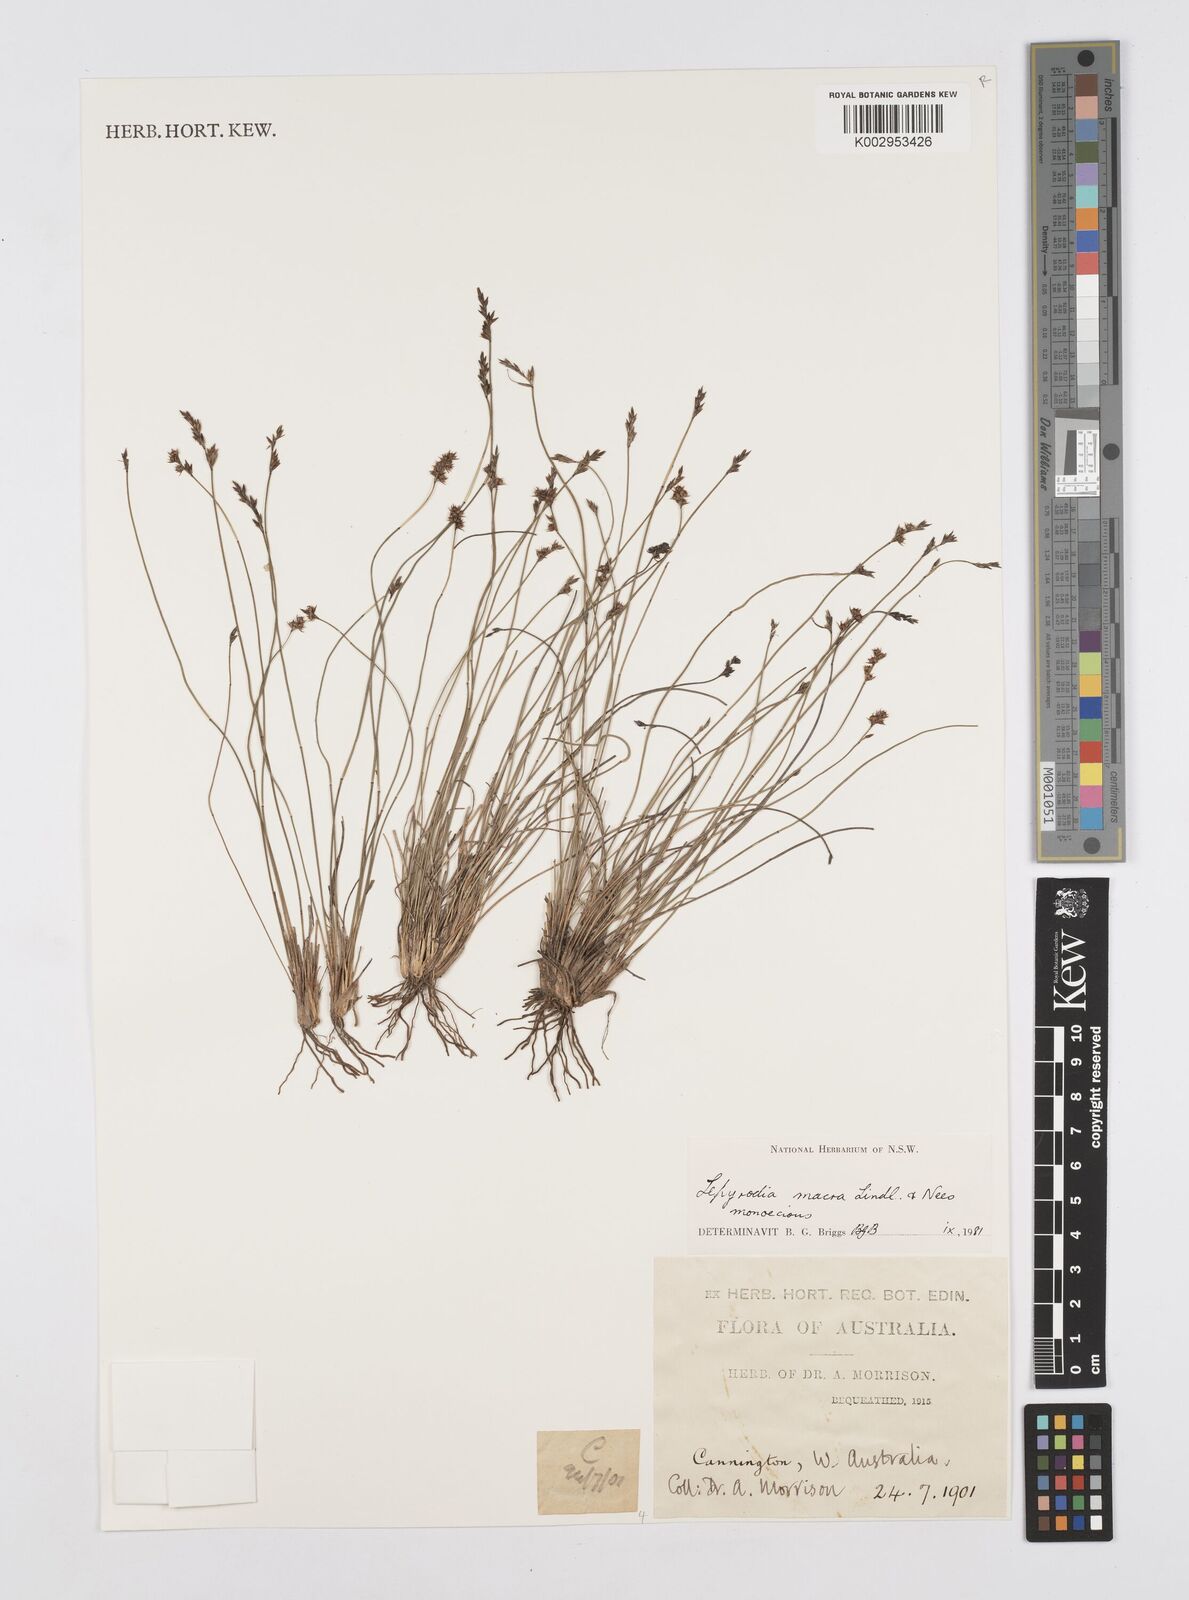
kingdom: Plantae
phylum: Tracheophyta
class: Liliopsida
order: Poales
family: Restionaceae
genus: Lepyrodia
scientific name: Lepyrodia macra
